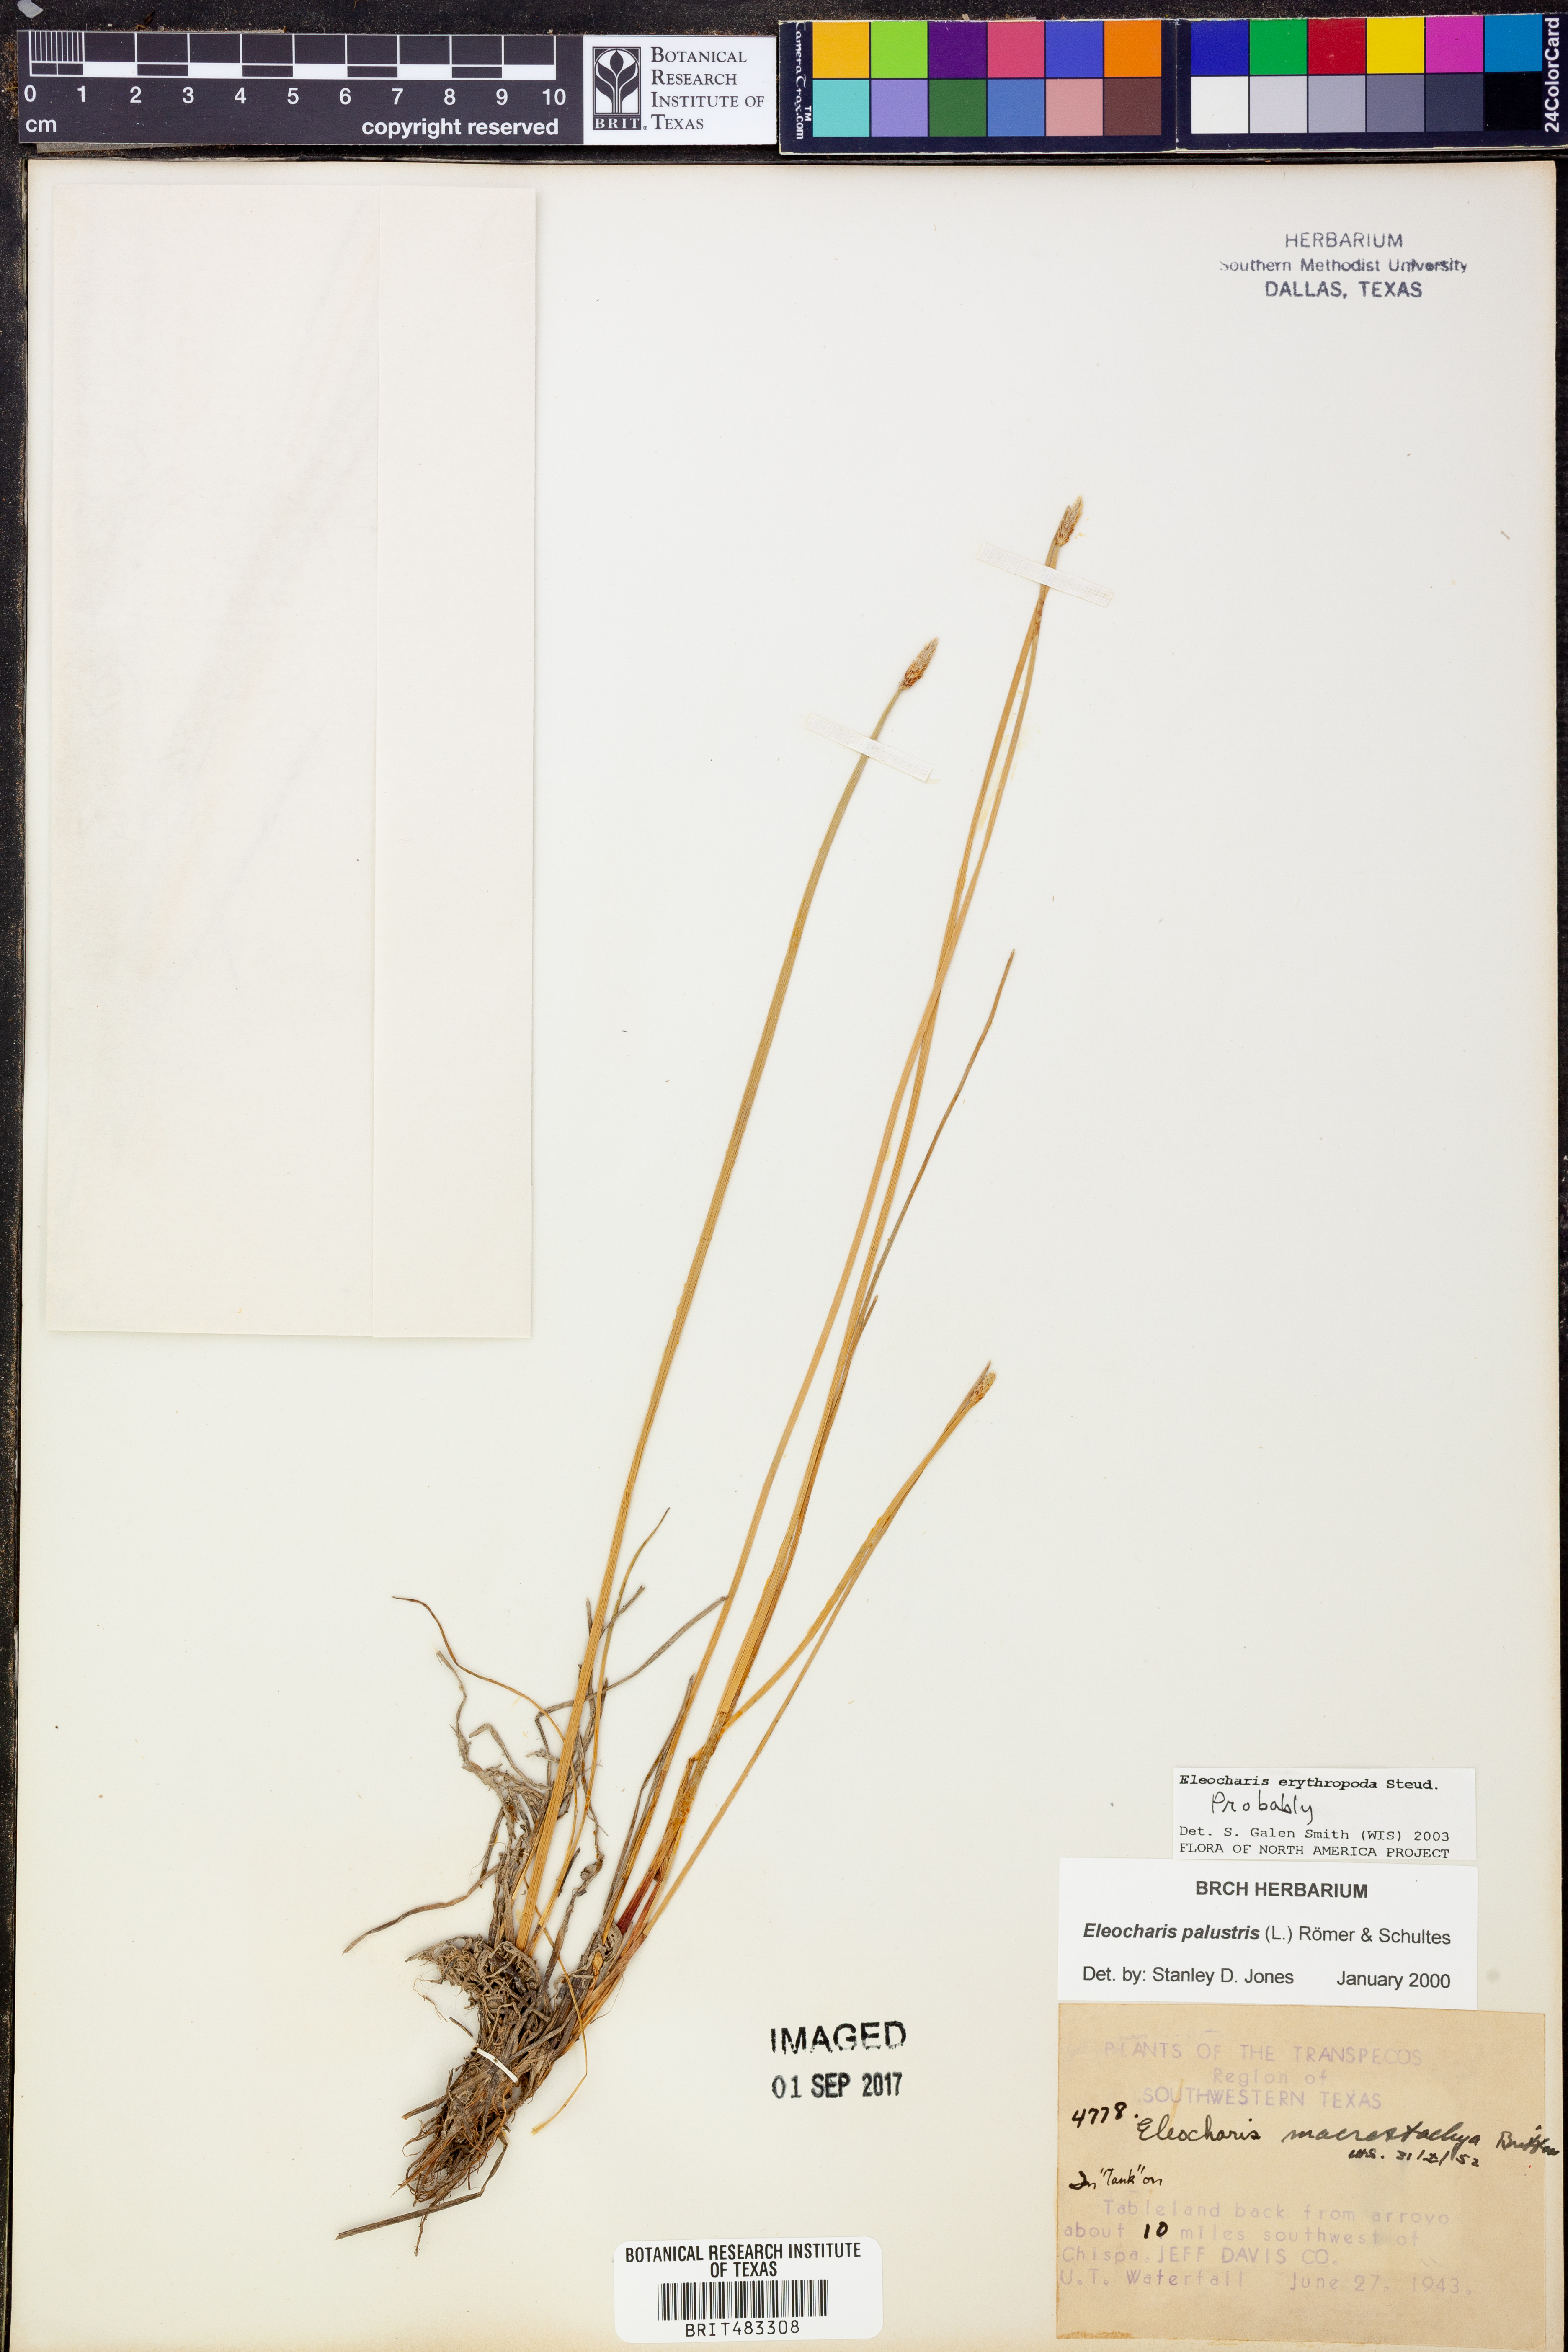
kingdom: Plantae
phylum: Tracheophyta
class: Liliopsida
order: Poales
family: Cyperaceae
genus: Eleocharis
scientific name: Eleocharis erythropoda
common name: Bald spikerush
